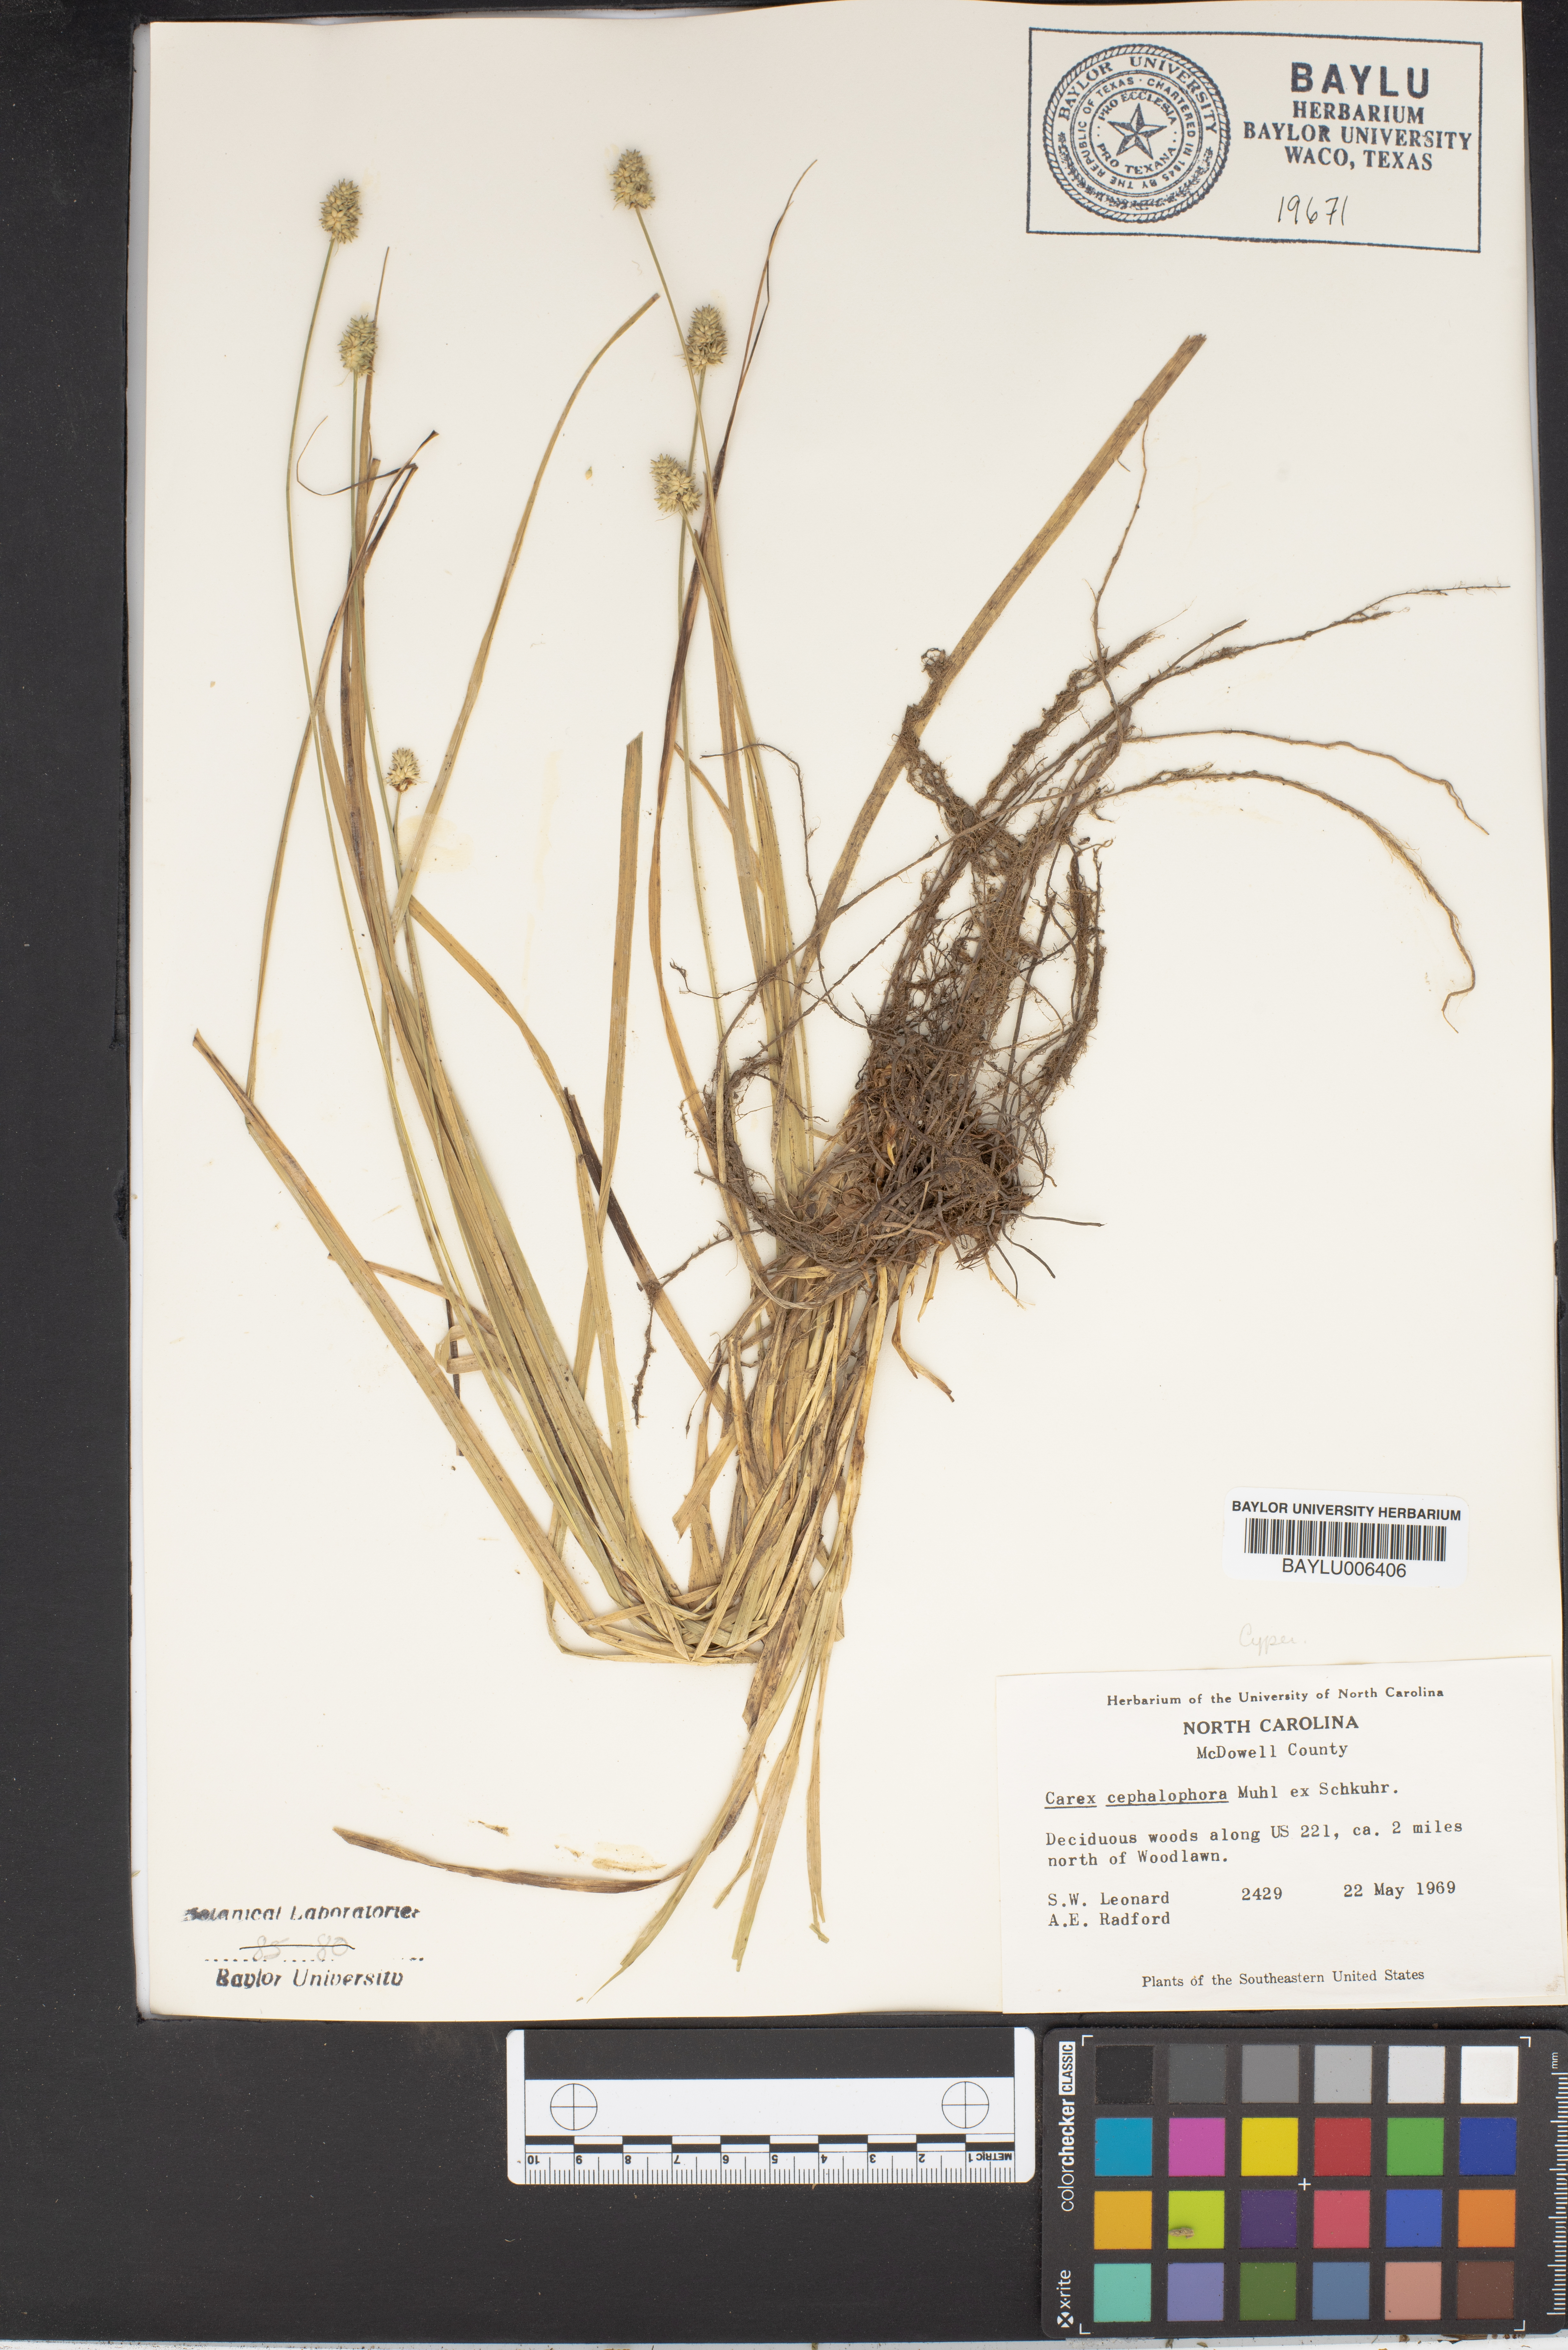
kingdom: Plantae
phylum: Tracheophyta
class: Liliopsida
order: Poales
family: Cyperaceae
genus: Carex
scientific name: Carex cephalophora
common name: Oval-headed sedge
